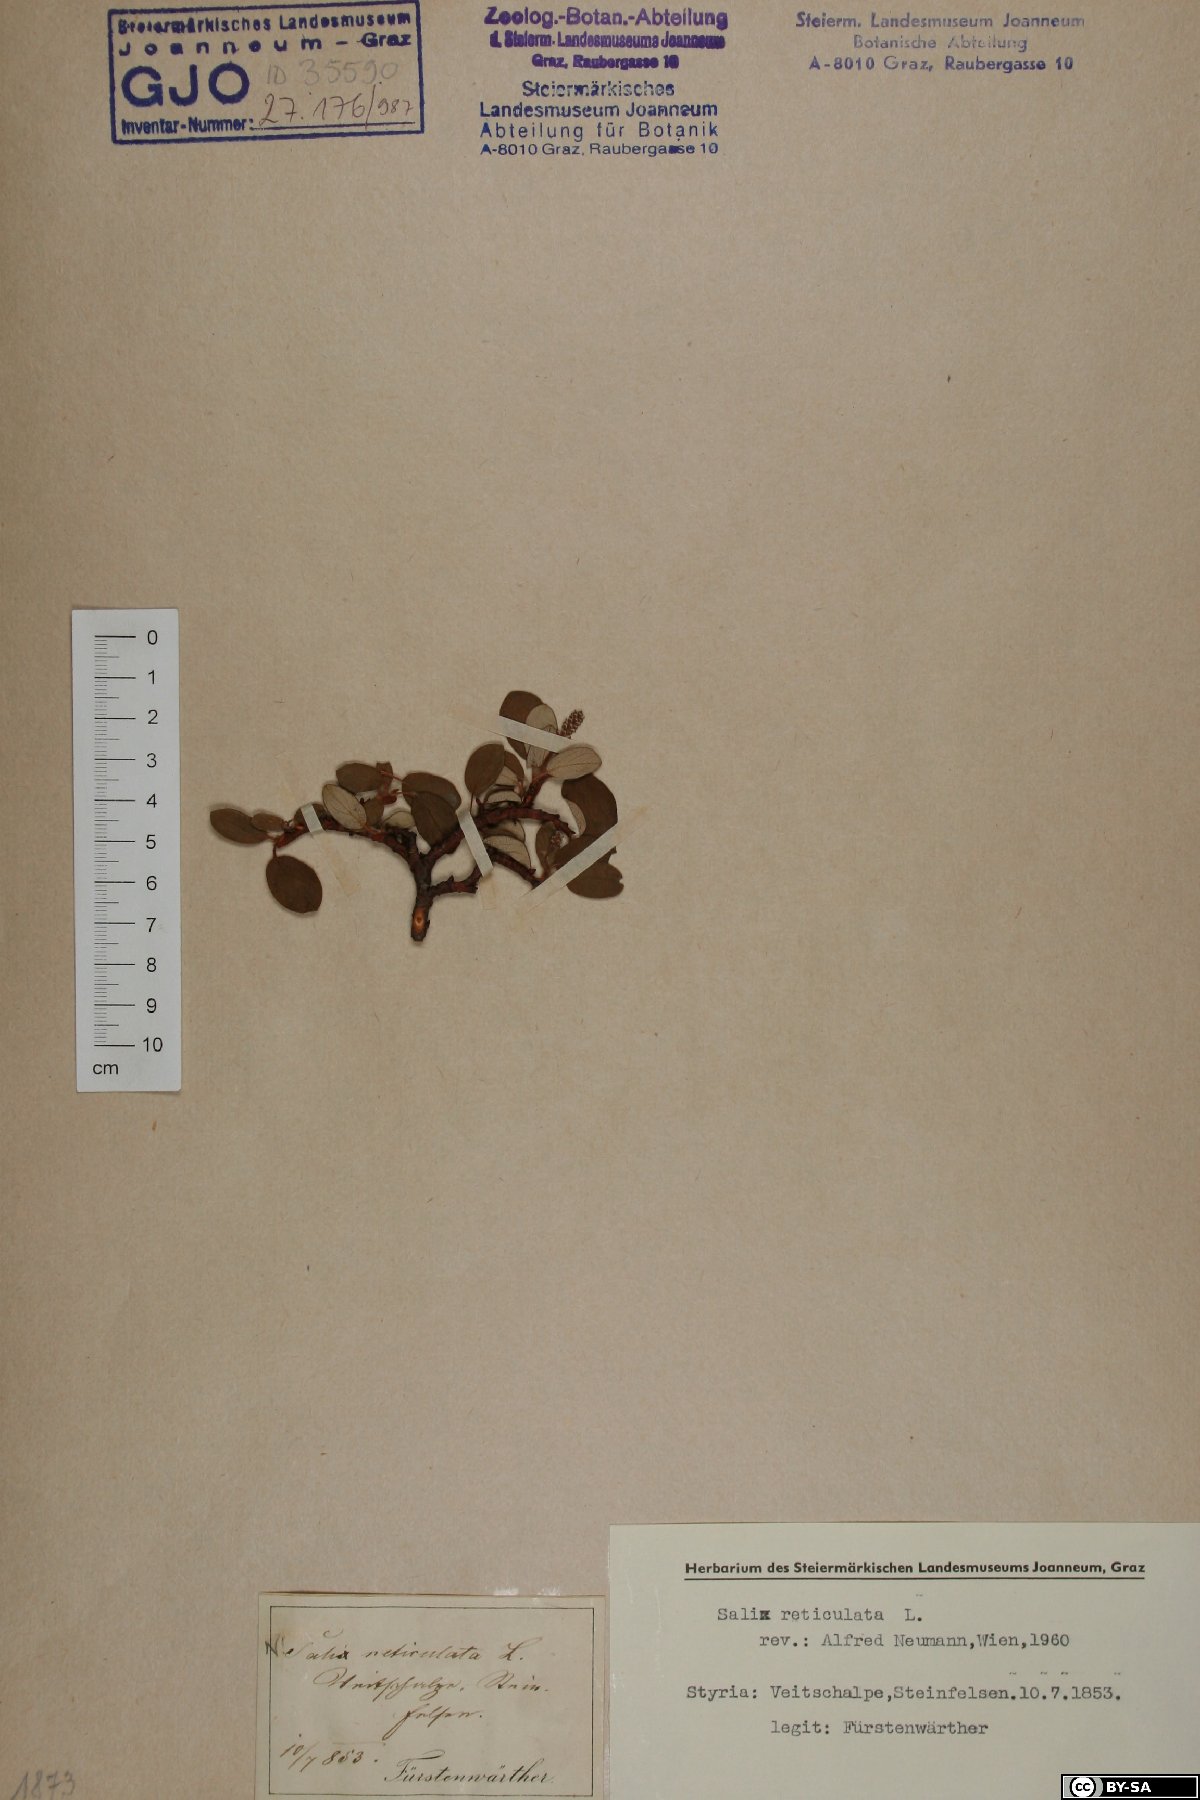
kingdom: Plantae
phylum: Tracheophyta
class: Magnoliopsida
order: Malpighiales
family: Salicaceae
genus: Salix
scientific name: Salix reticulata
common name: Net-leaved willow
